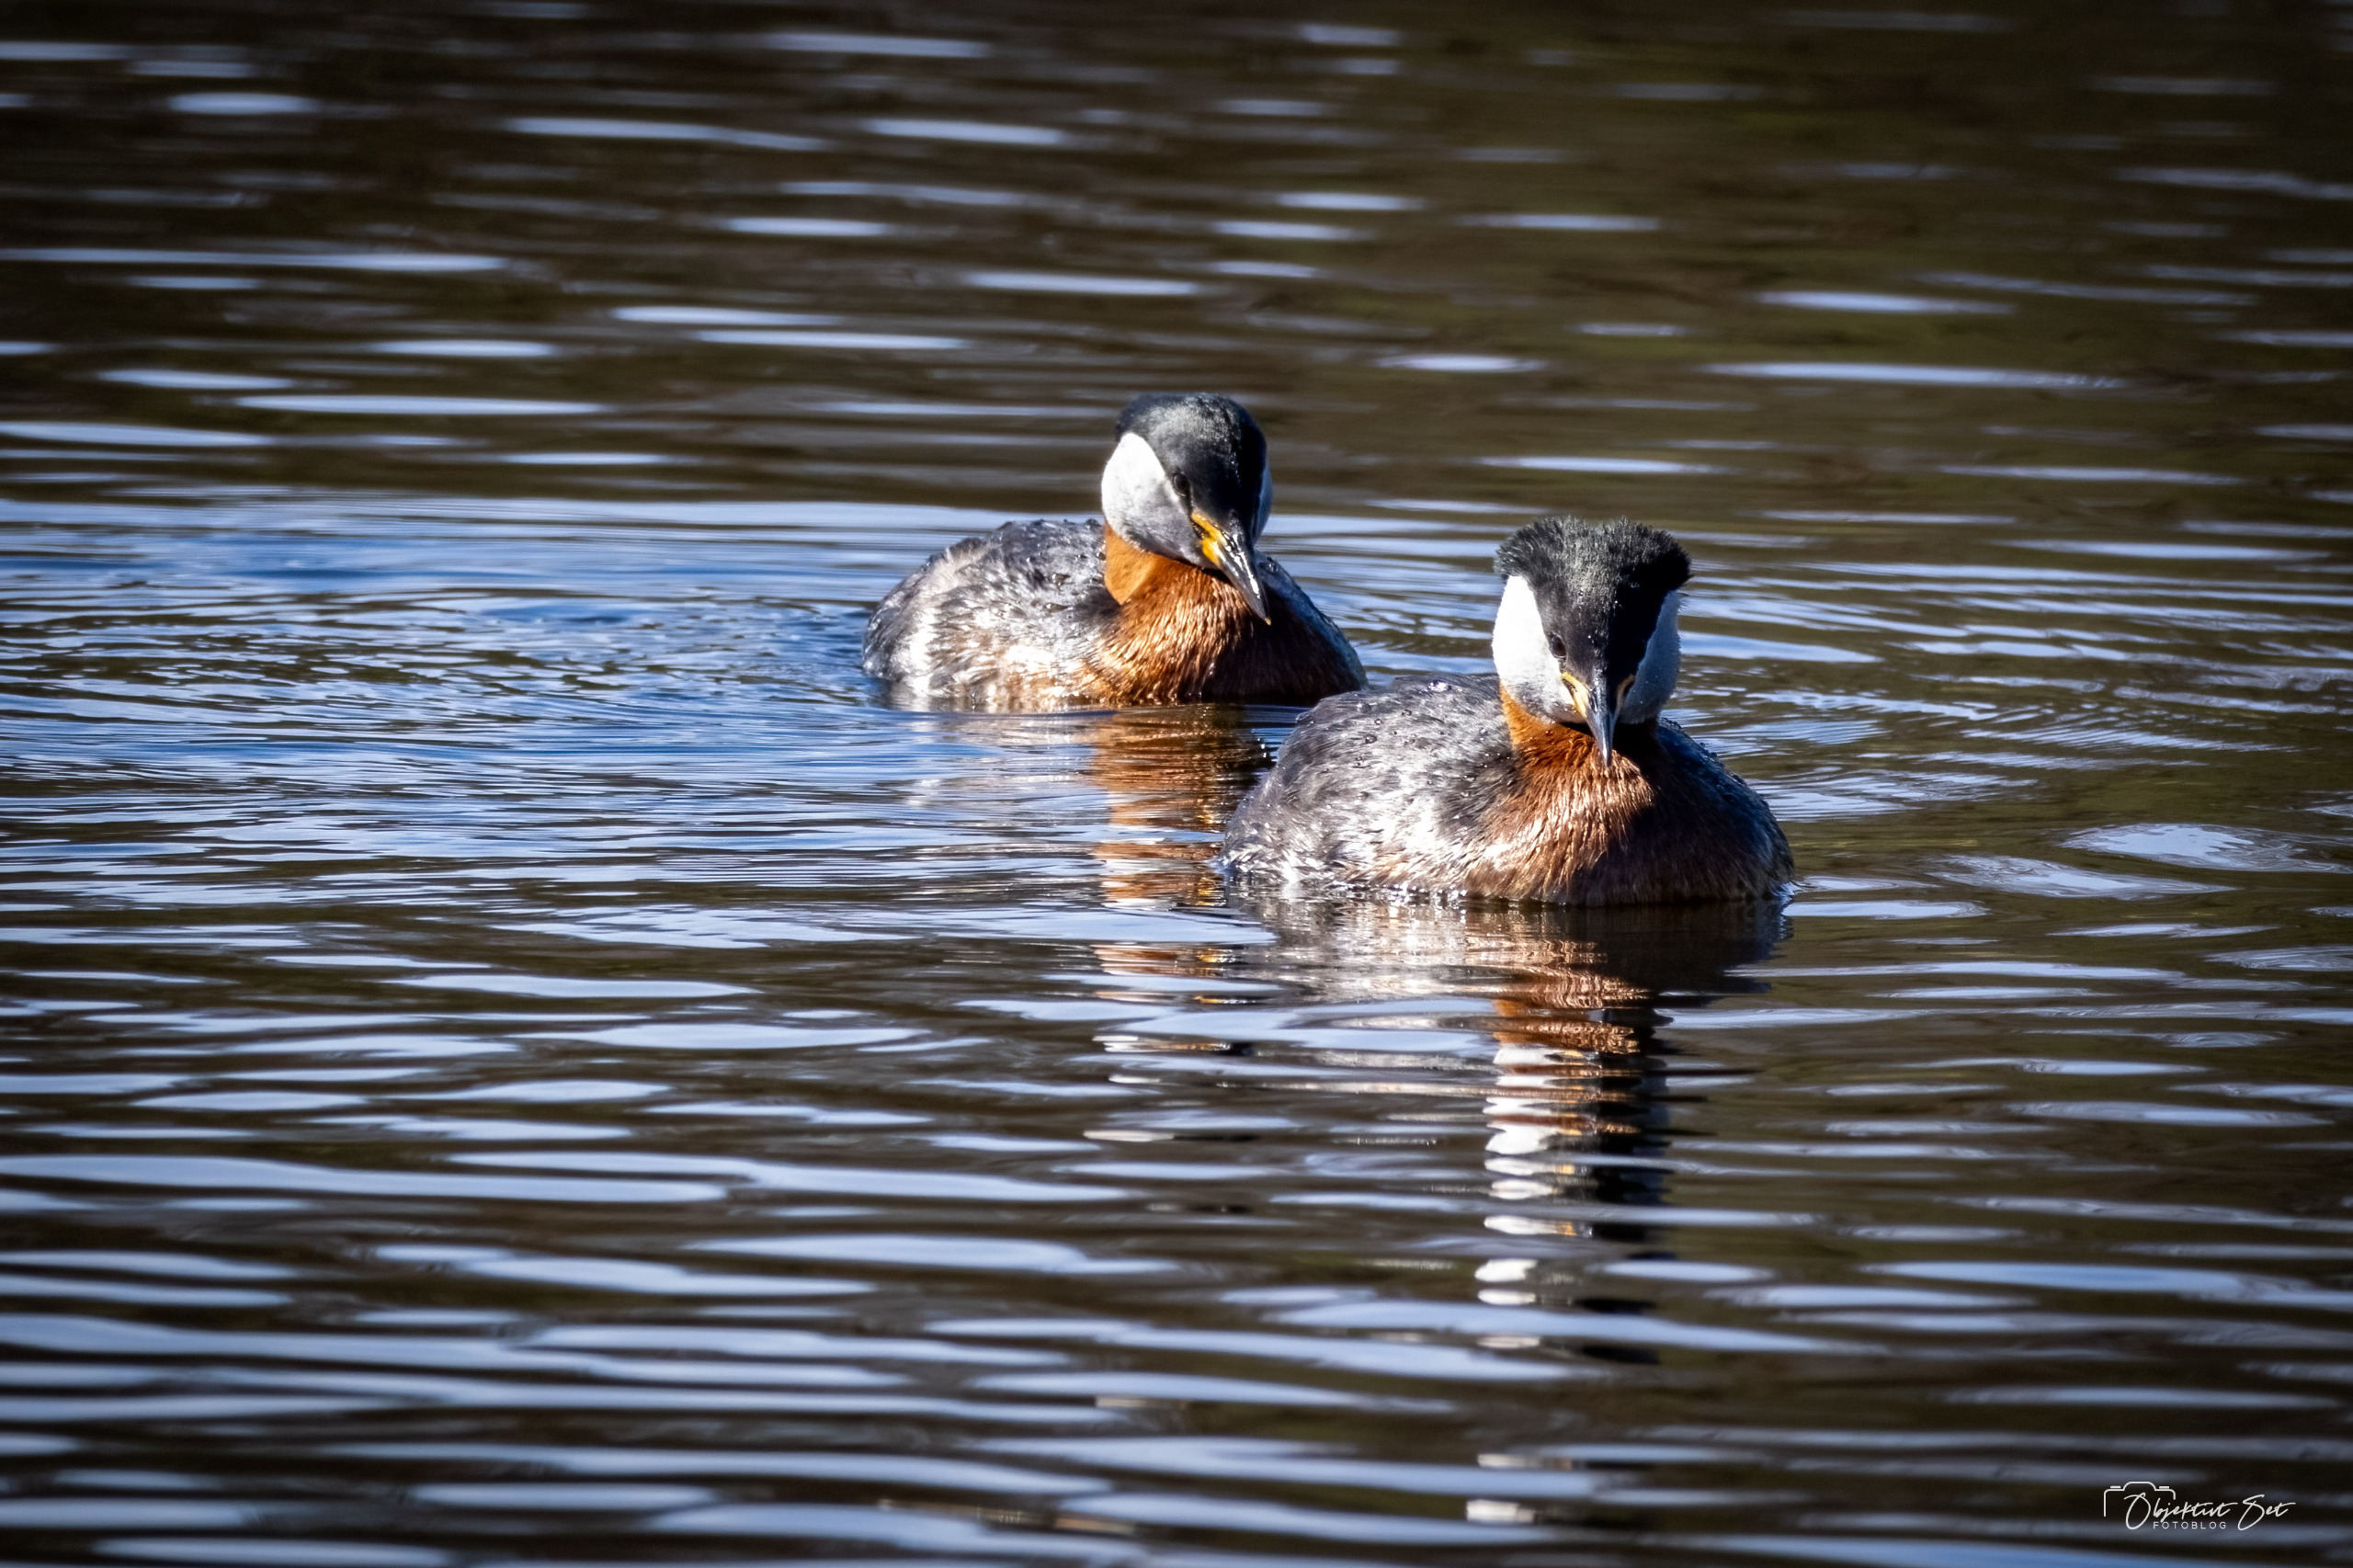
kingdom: Animalia
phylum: Chordata
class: Aves
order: Podicipediformes
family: Podicipedidae
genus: Podiceps
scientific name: Podiceps grisegena
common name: Gråstrubet lappedykker
